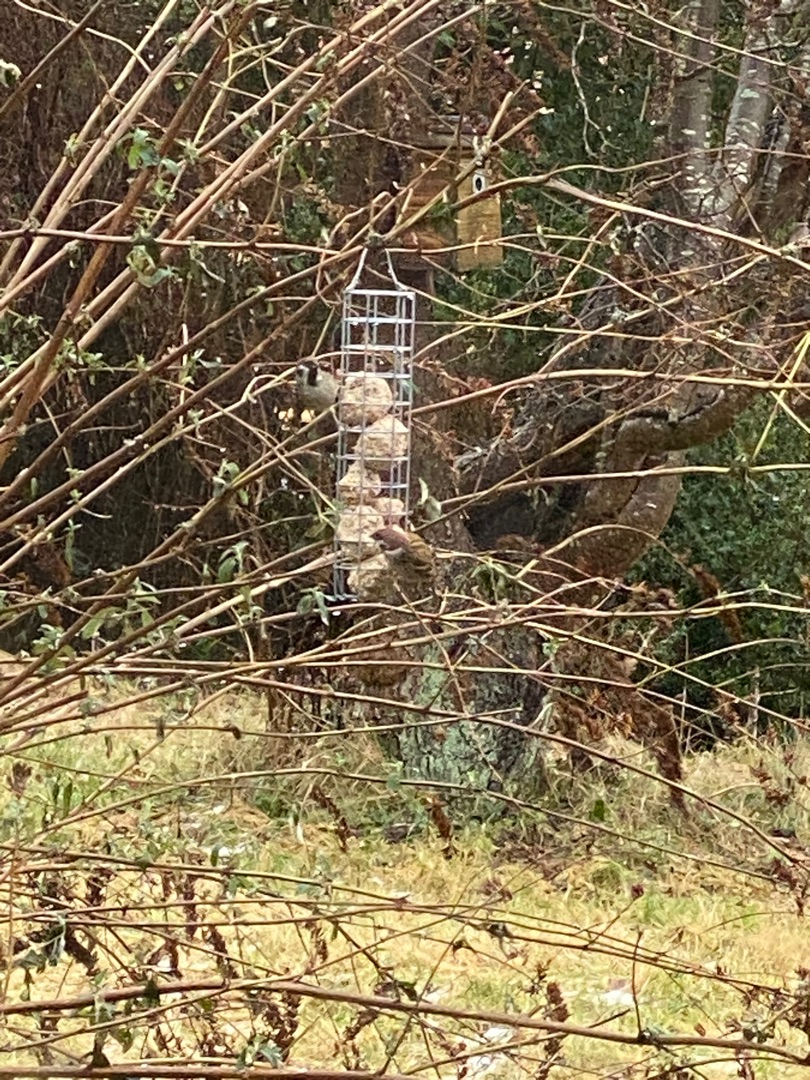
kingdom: Animalia
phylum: Chordata
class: Aves
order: Passeriformes
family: Passeridae
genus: Passer
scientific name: Passer montanus
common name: Skovspurv
